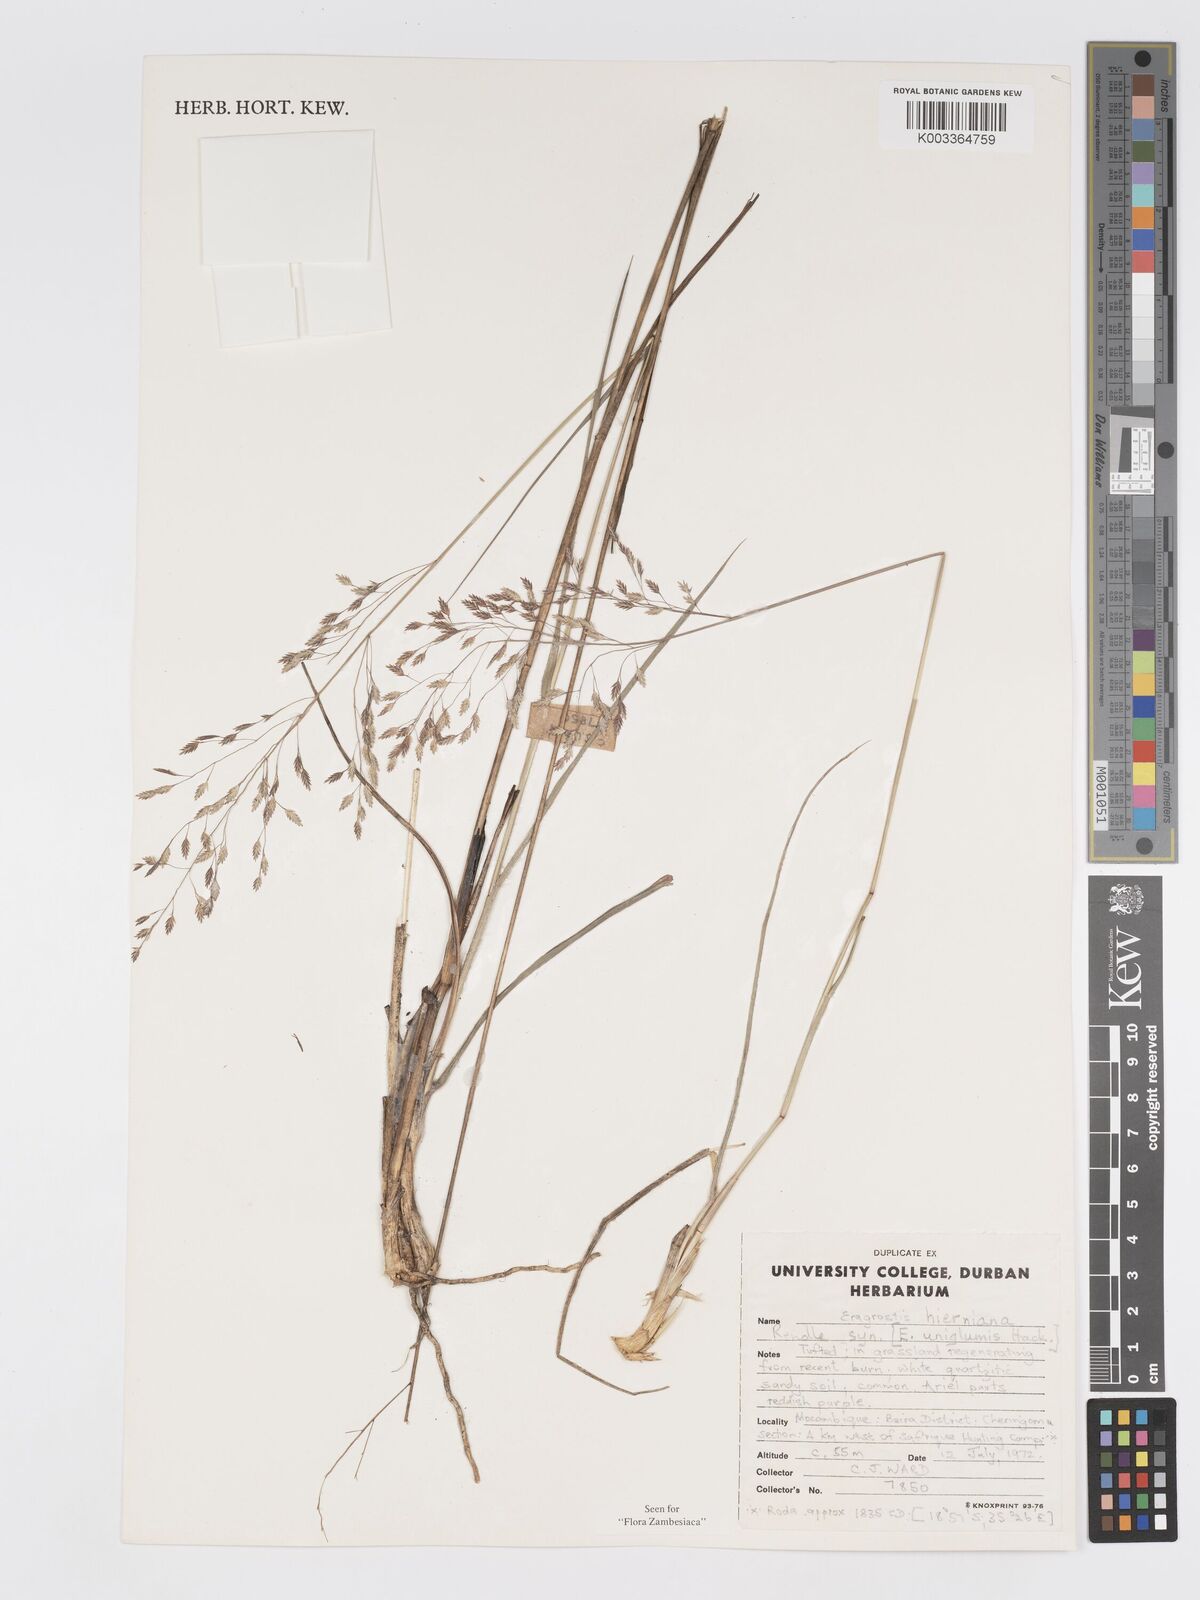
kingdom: Plantae
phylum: Tracheophyta
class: Liliopsida
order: Poales
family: Poaceae
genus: Eragrostis
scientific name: Eragrostis hierniana
